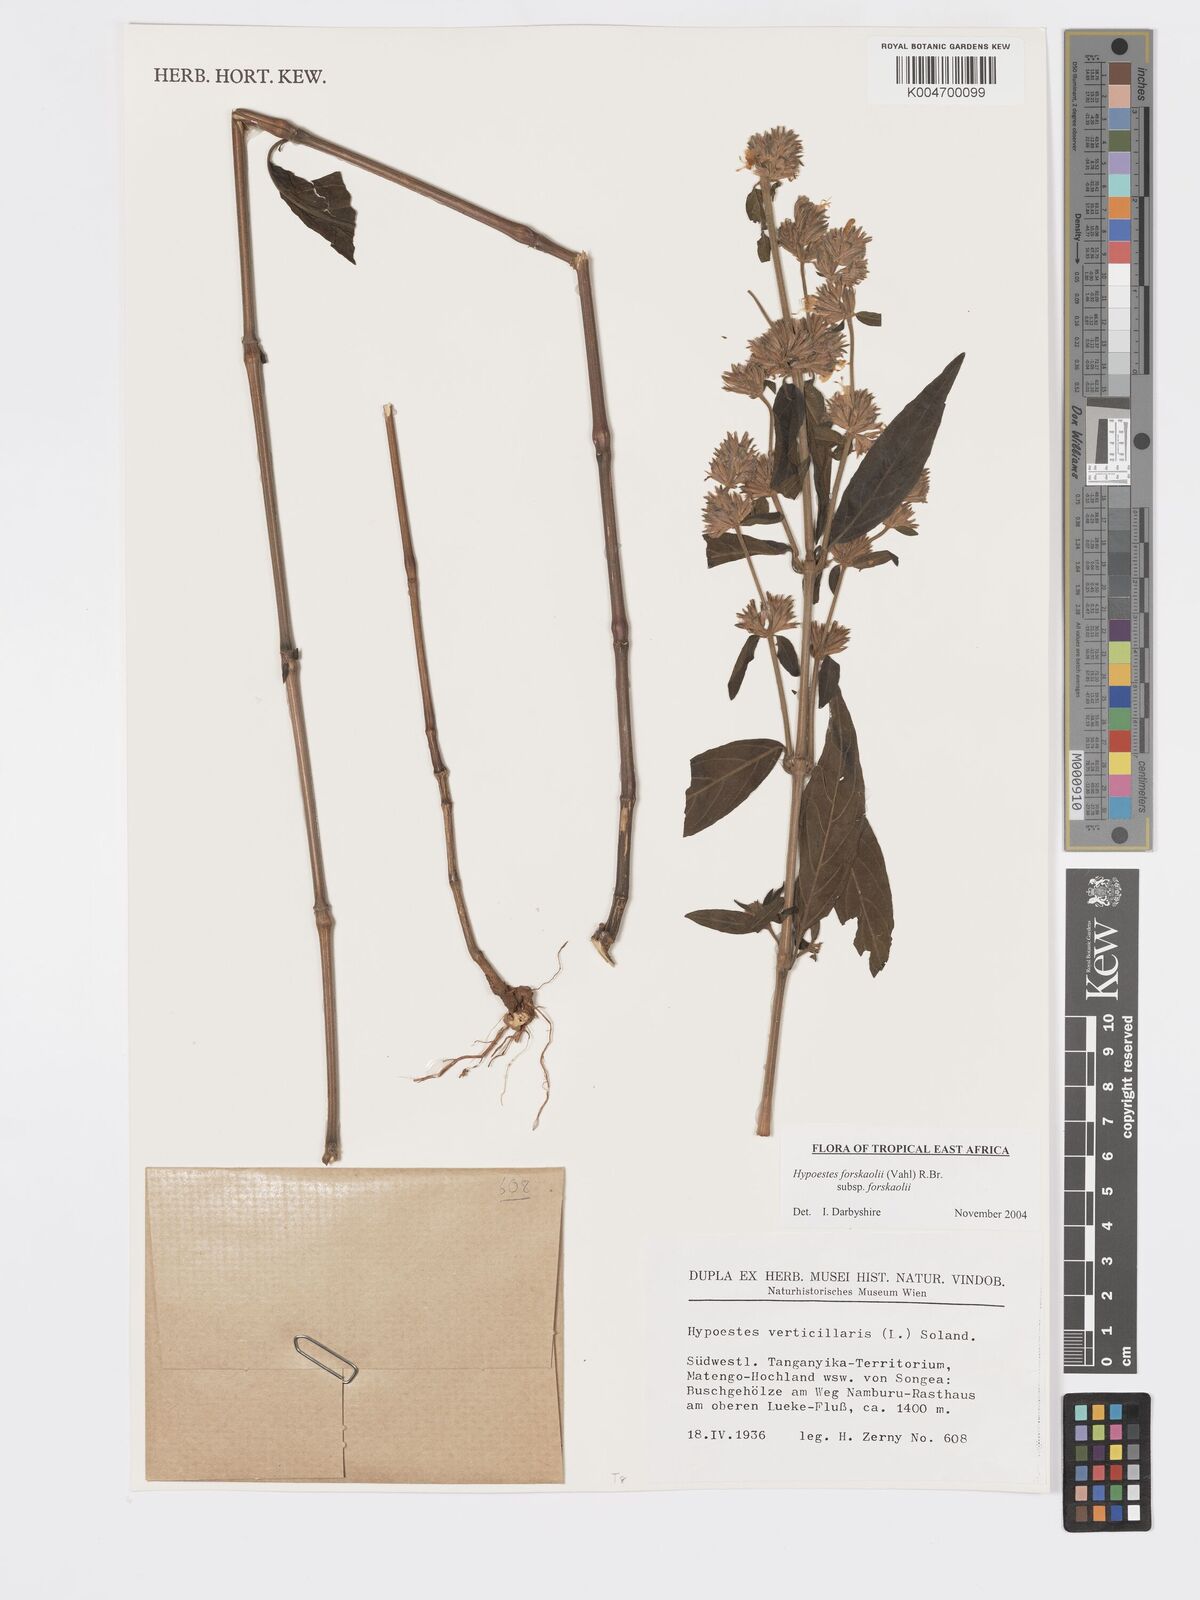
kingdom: Plantae
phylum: Tracheophyta
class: Magnoliopsida
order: Lamiales
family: Acanthaceae
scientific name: Acanthaceae
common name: Acanthaceae
